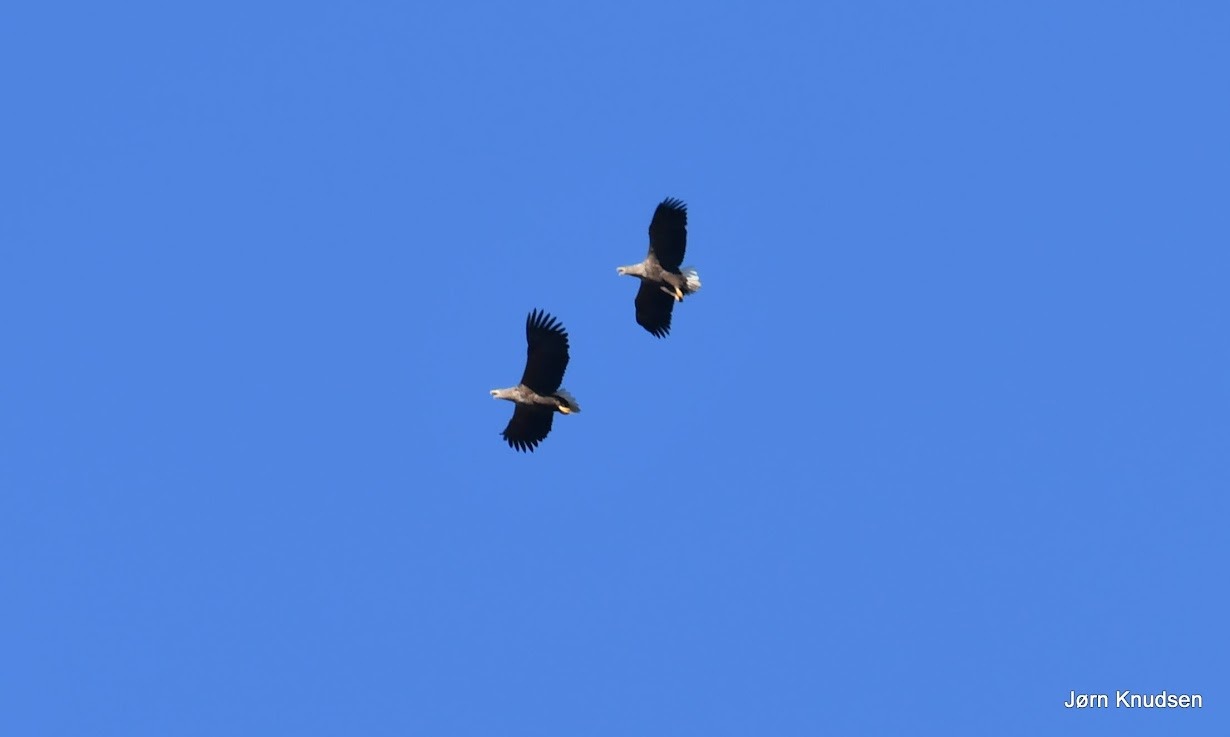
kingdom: Animalia
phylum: Chordata
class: Aves
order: Accipitriformes
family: Accipitridae
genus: Haliaeetus
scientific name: Haliaeetus albicilla
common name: Havørn
